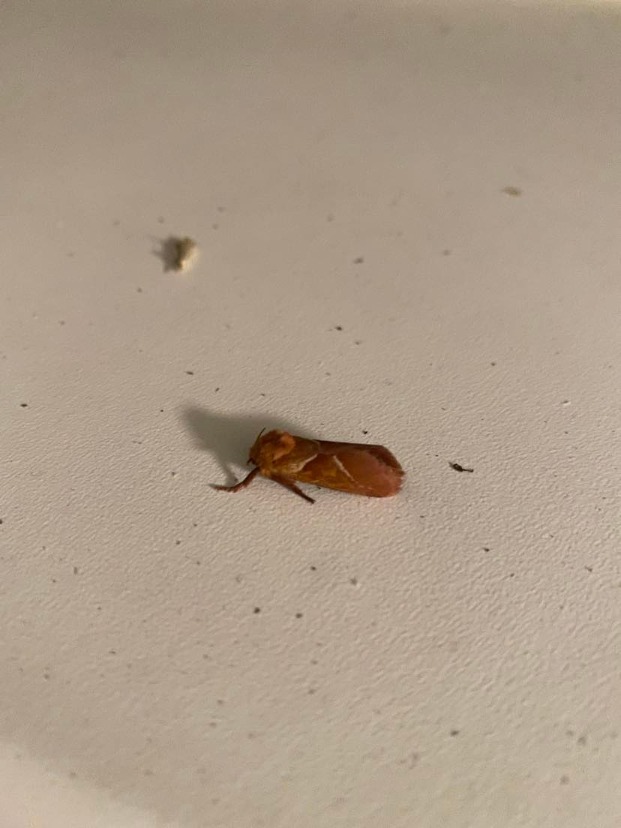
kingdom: Animalia
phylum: Arthropoda
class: Insecta
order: Lepidoptera
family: Hepialidae
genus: Triodia
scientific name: Triodia sylvina
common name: Skræpperodæder
